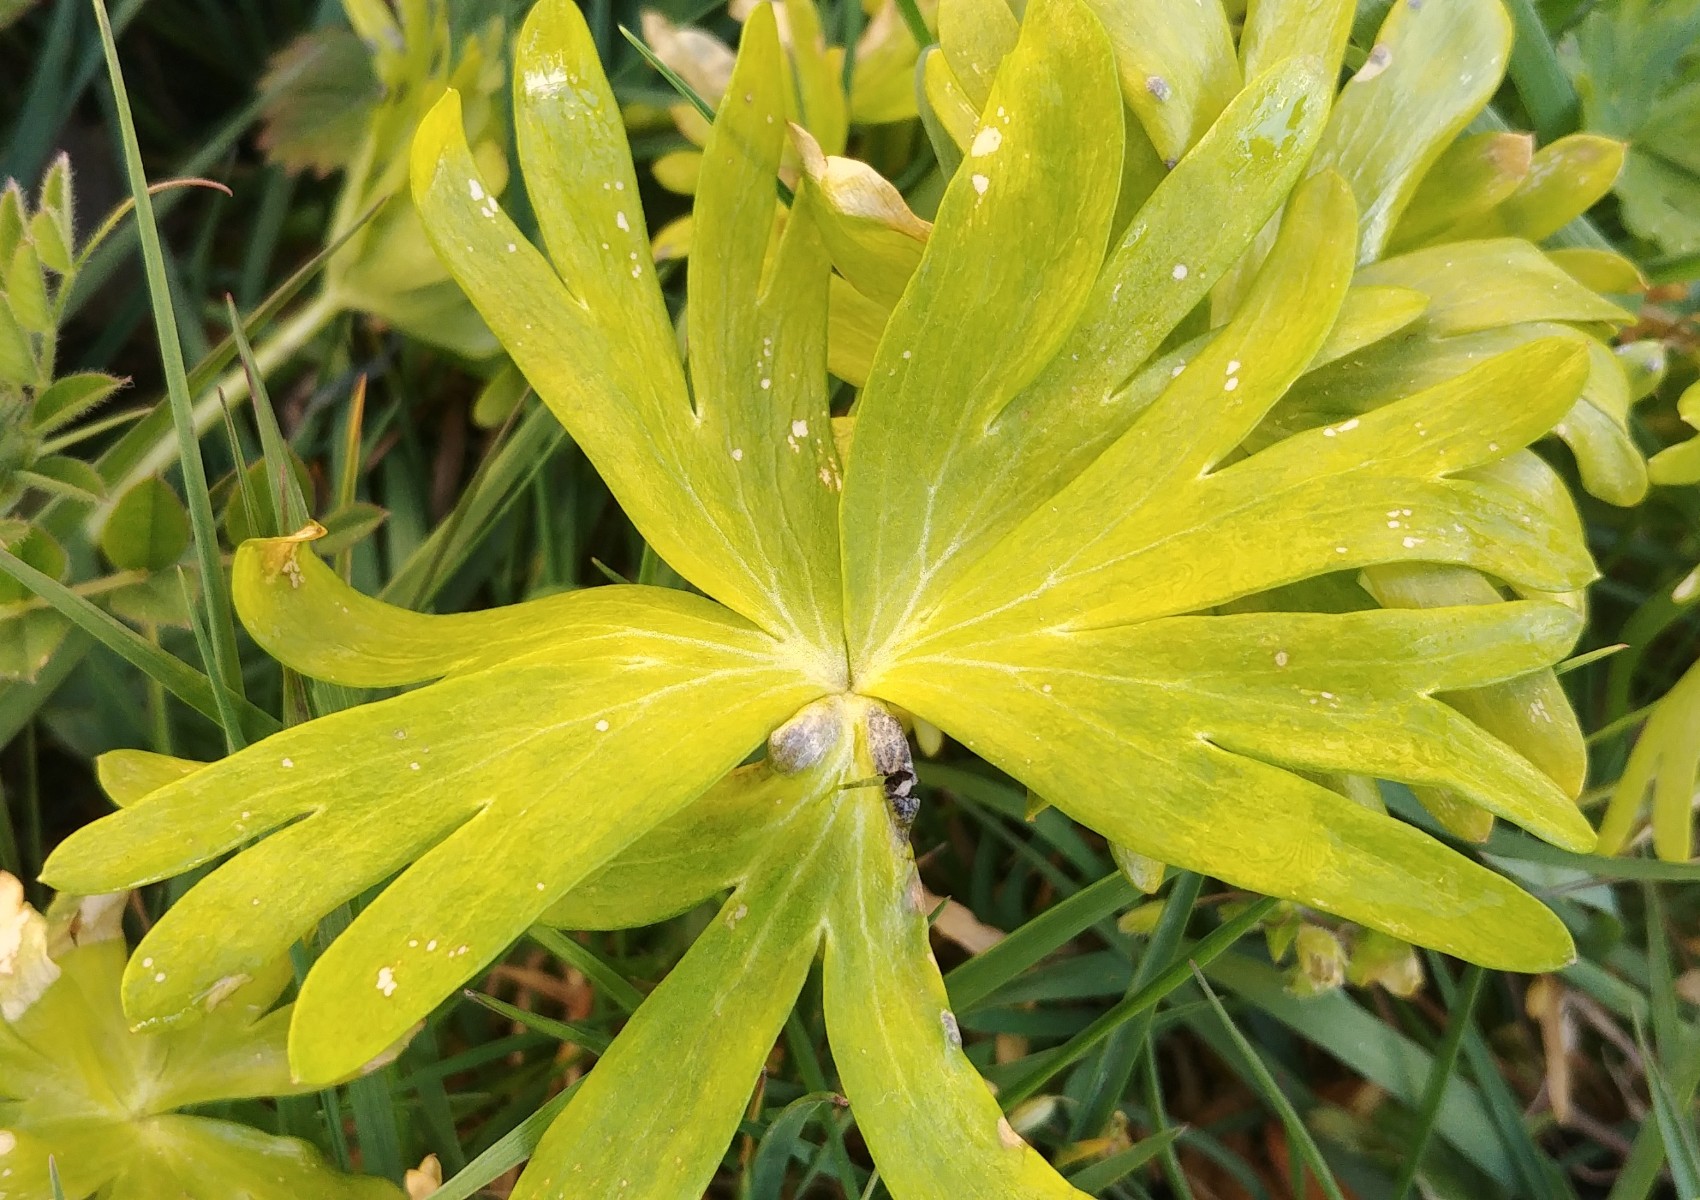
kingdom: Fungi
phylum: Basidiomycota
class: Ustilaginomycetes
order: Urocystidales
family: Urocystidaceae
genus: Urocystis
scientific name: Urocystis eranthidis
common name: erantis-brand
